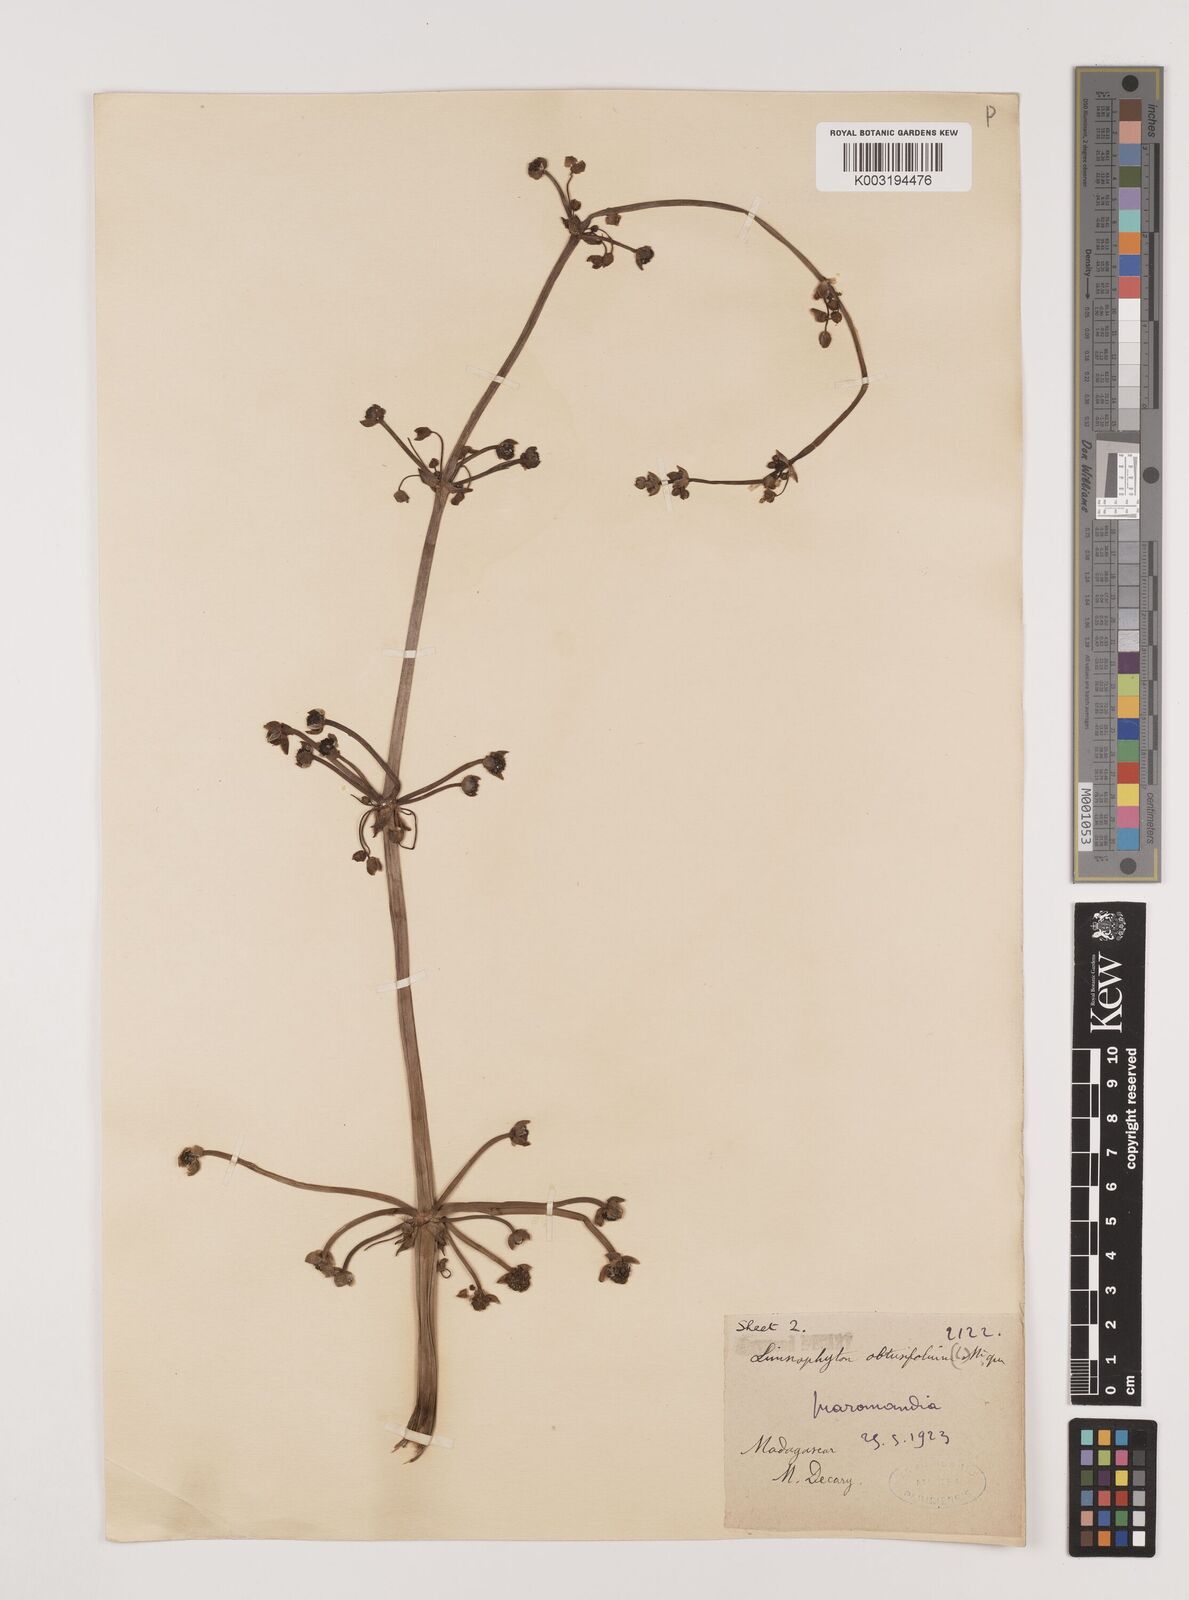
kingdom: Plantae
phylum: Tracheophyta
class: Liliopsida
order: Alismatales
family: Alismataceae
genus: Limnophyton
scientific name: Limnophyton obtusifolium
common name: Arrow head
